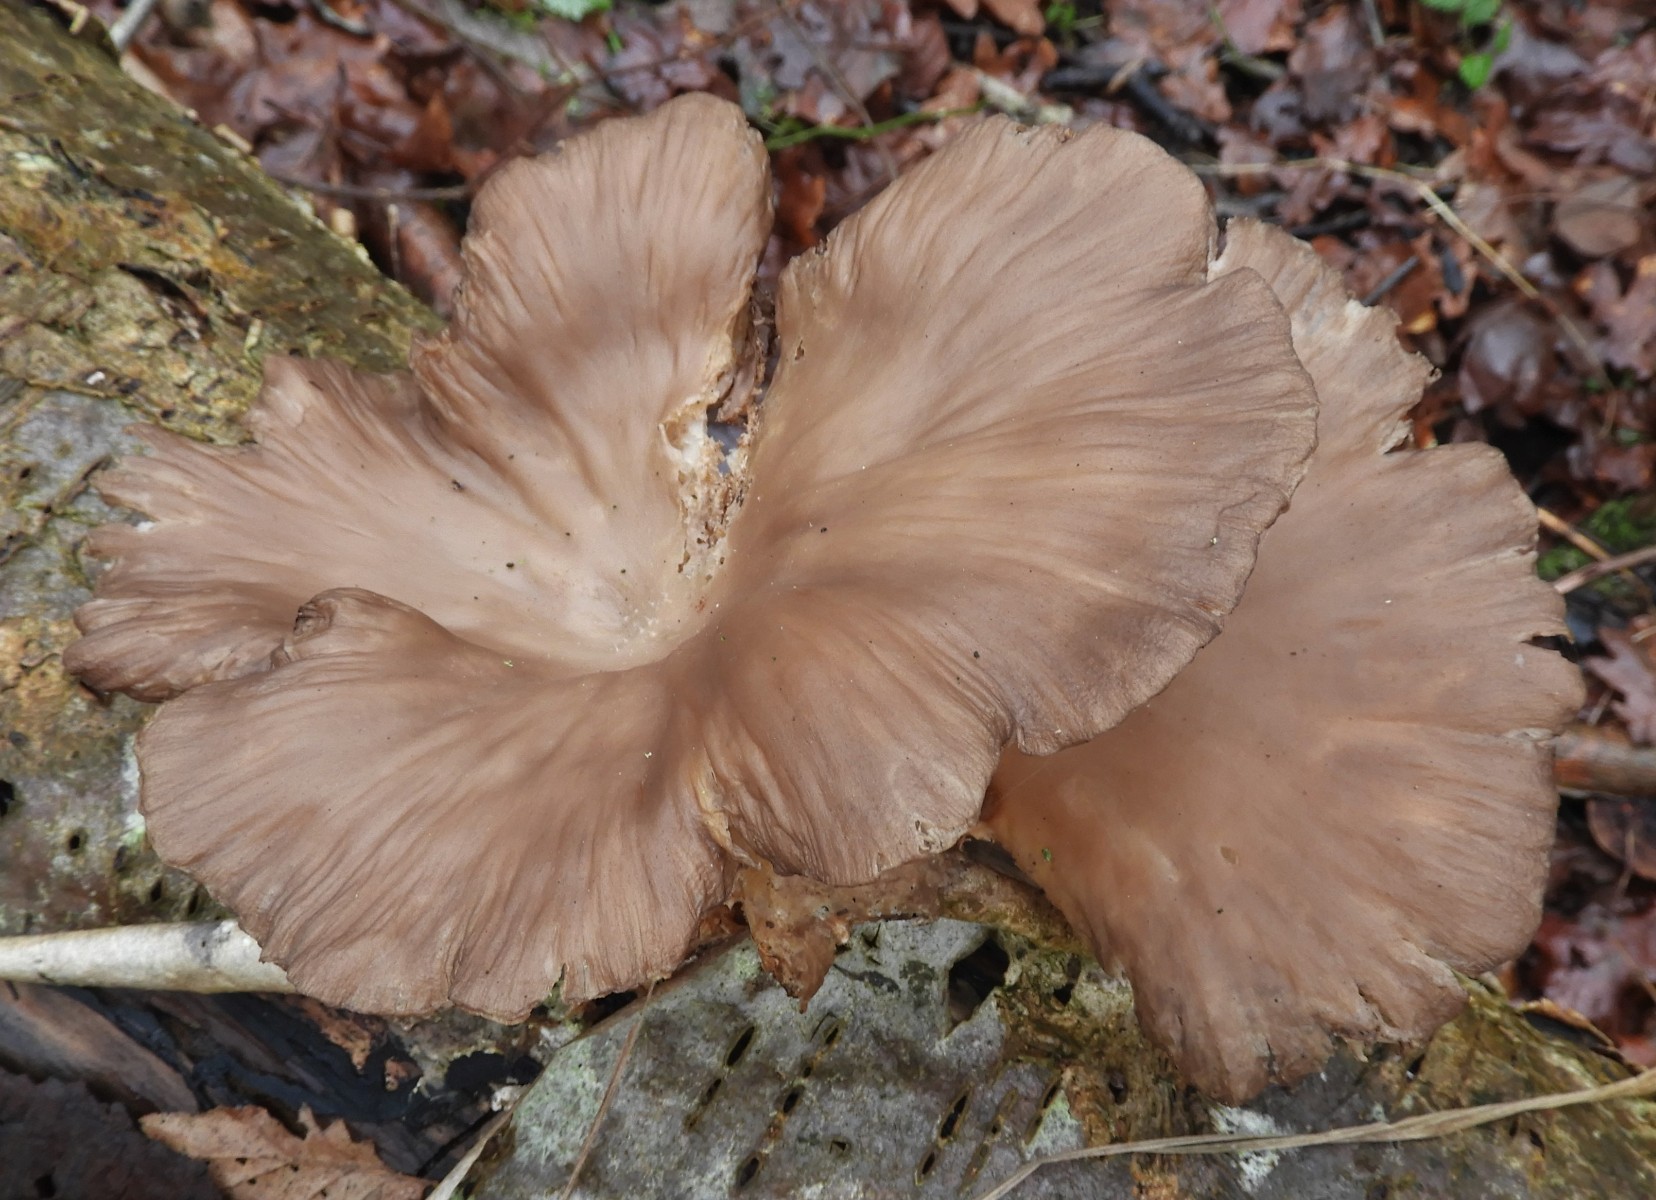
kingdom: Fungi
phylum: Basidiomycota
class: Agaricomycetes
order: Agaricales
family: Pleurotaceae
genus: Pleurotus
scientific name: Pleurotus ostreatus
